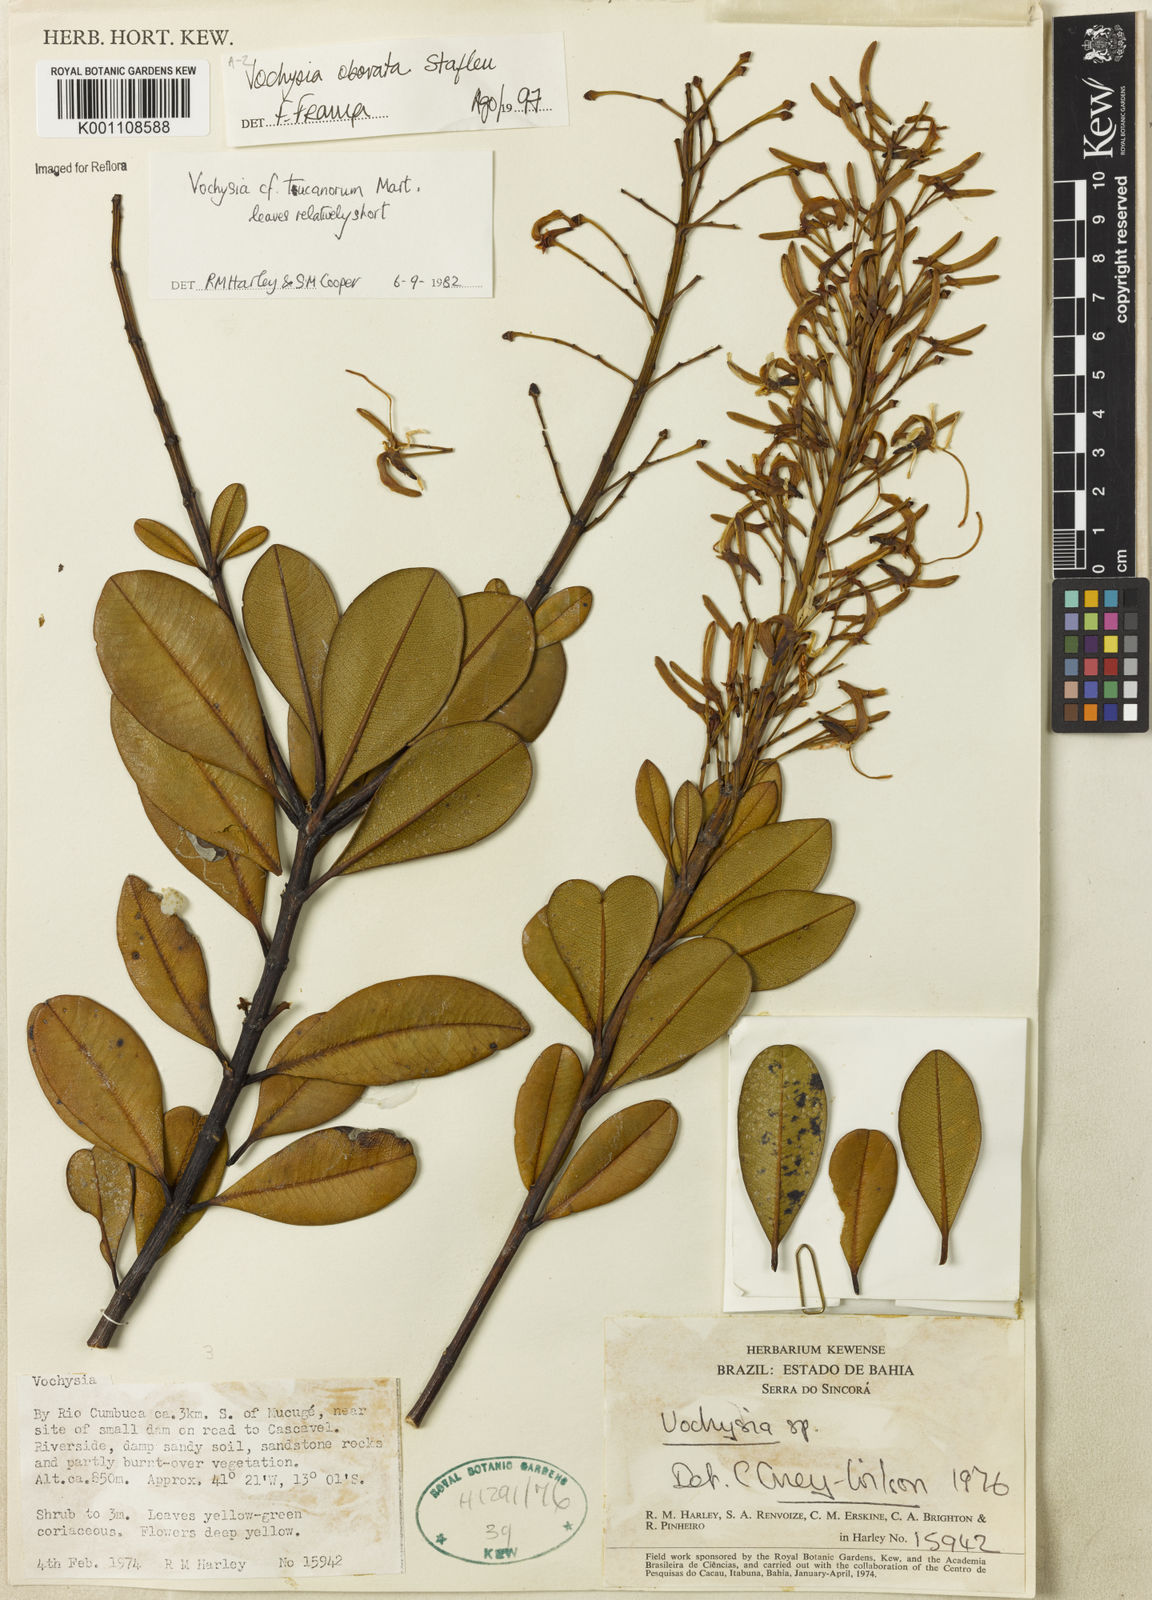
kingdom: Plantae
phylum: Tracheophyta
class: Magnoliopsida
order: Myrtales
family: Vochysiaceae
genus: Vochysia
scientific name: Vochysia obovata
